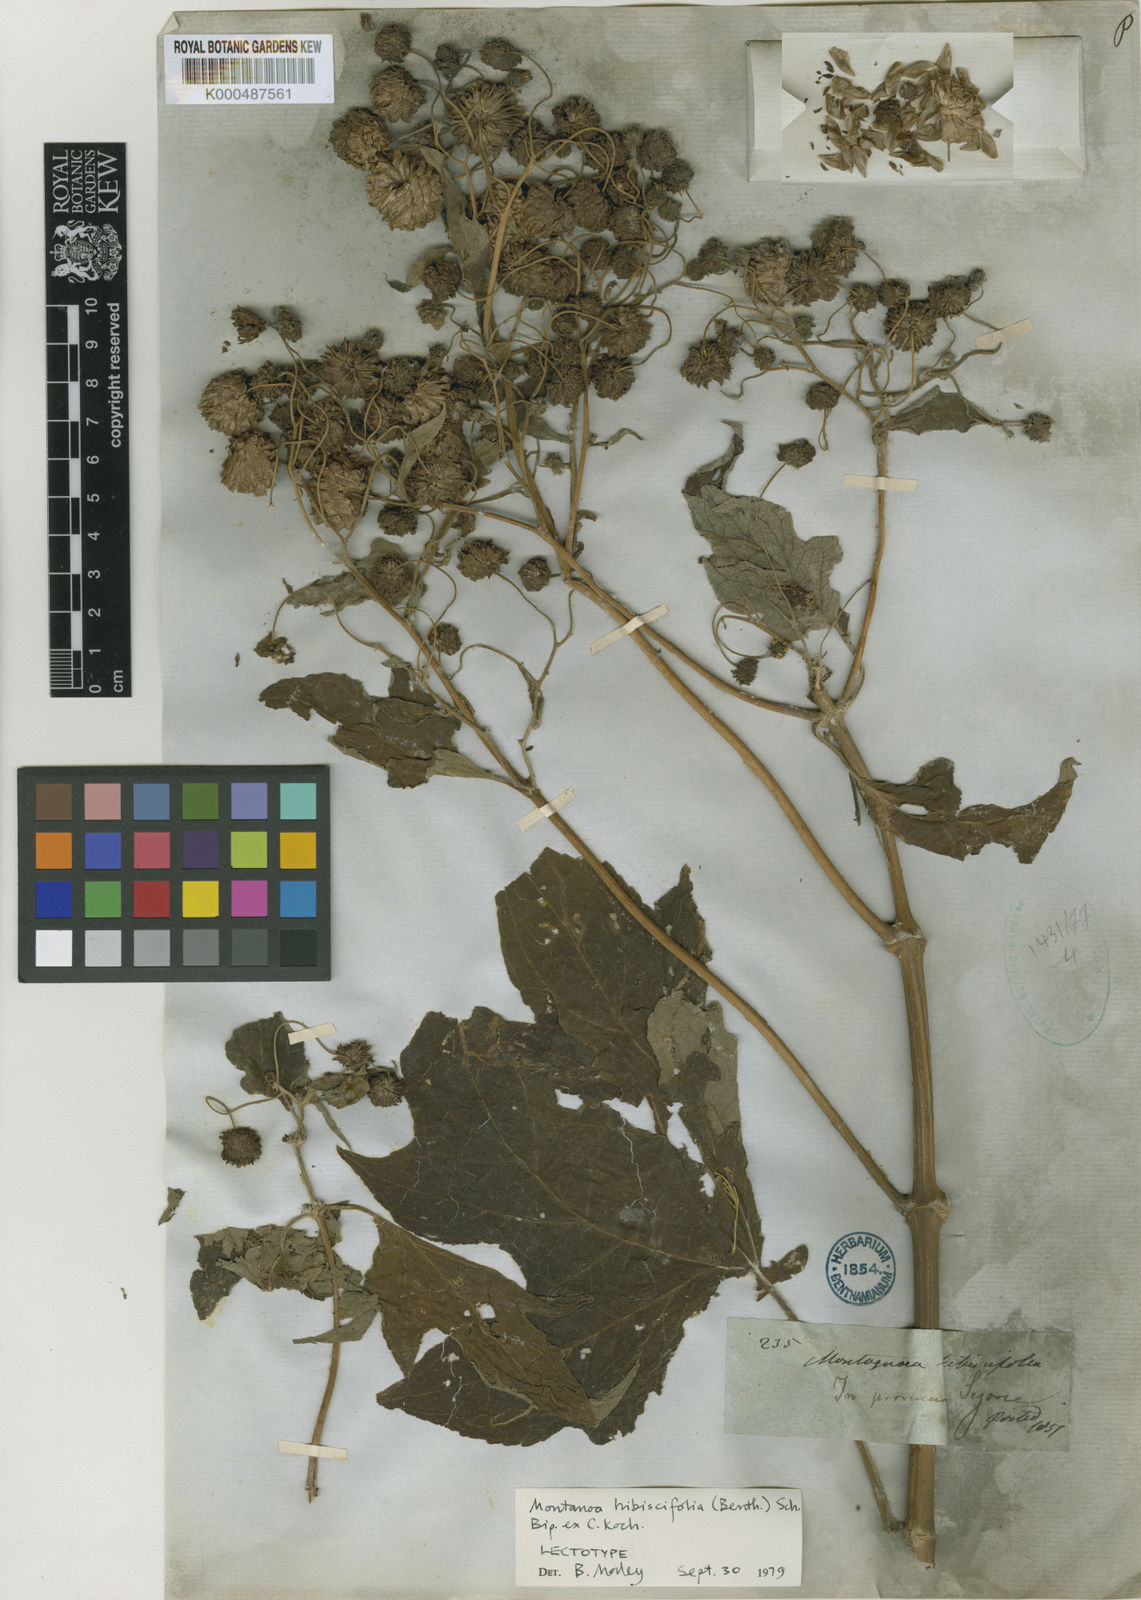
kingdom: Plantae
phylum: Tracheophyta
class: Magnoliopsida
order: Asterales
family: Asteraceae
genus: Montanoa
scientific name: Montanoa hibiscifolia
